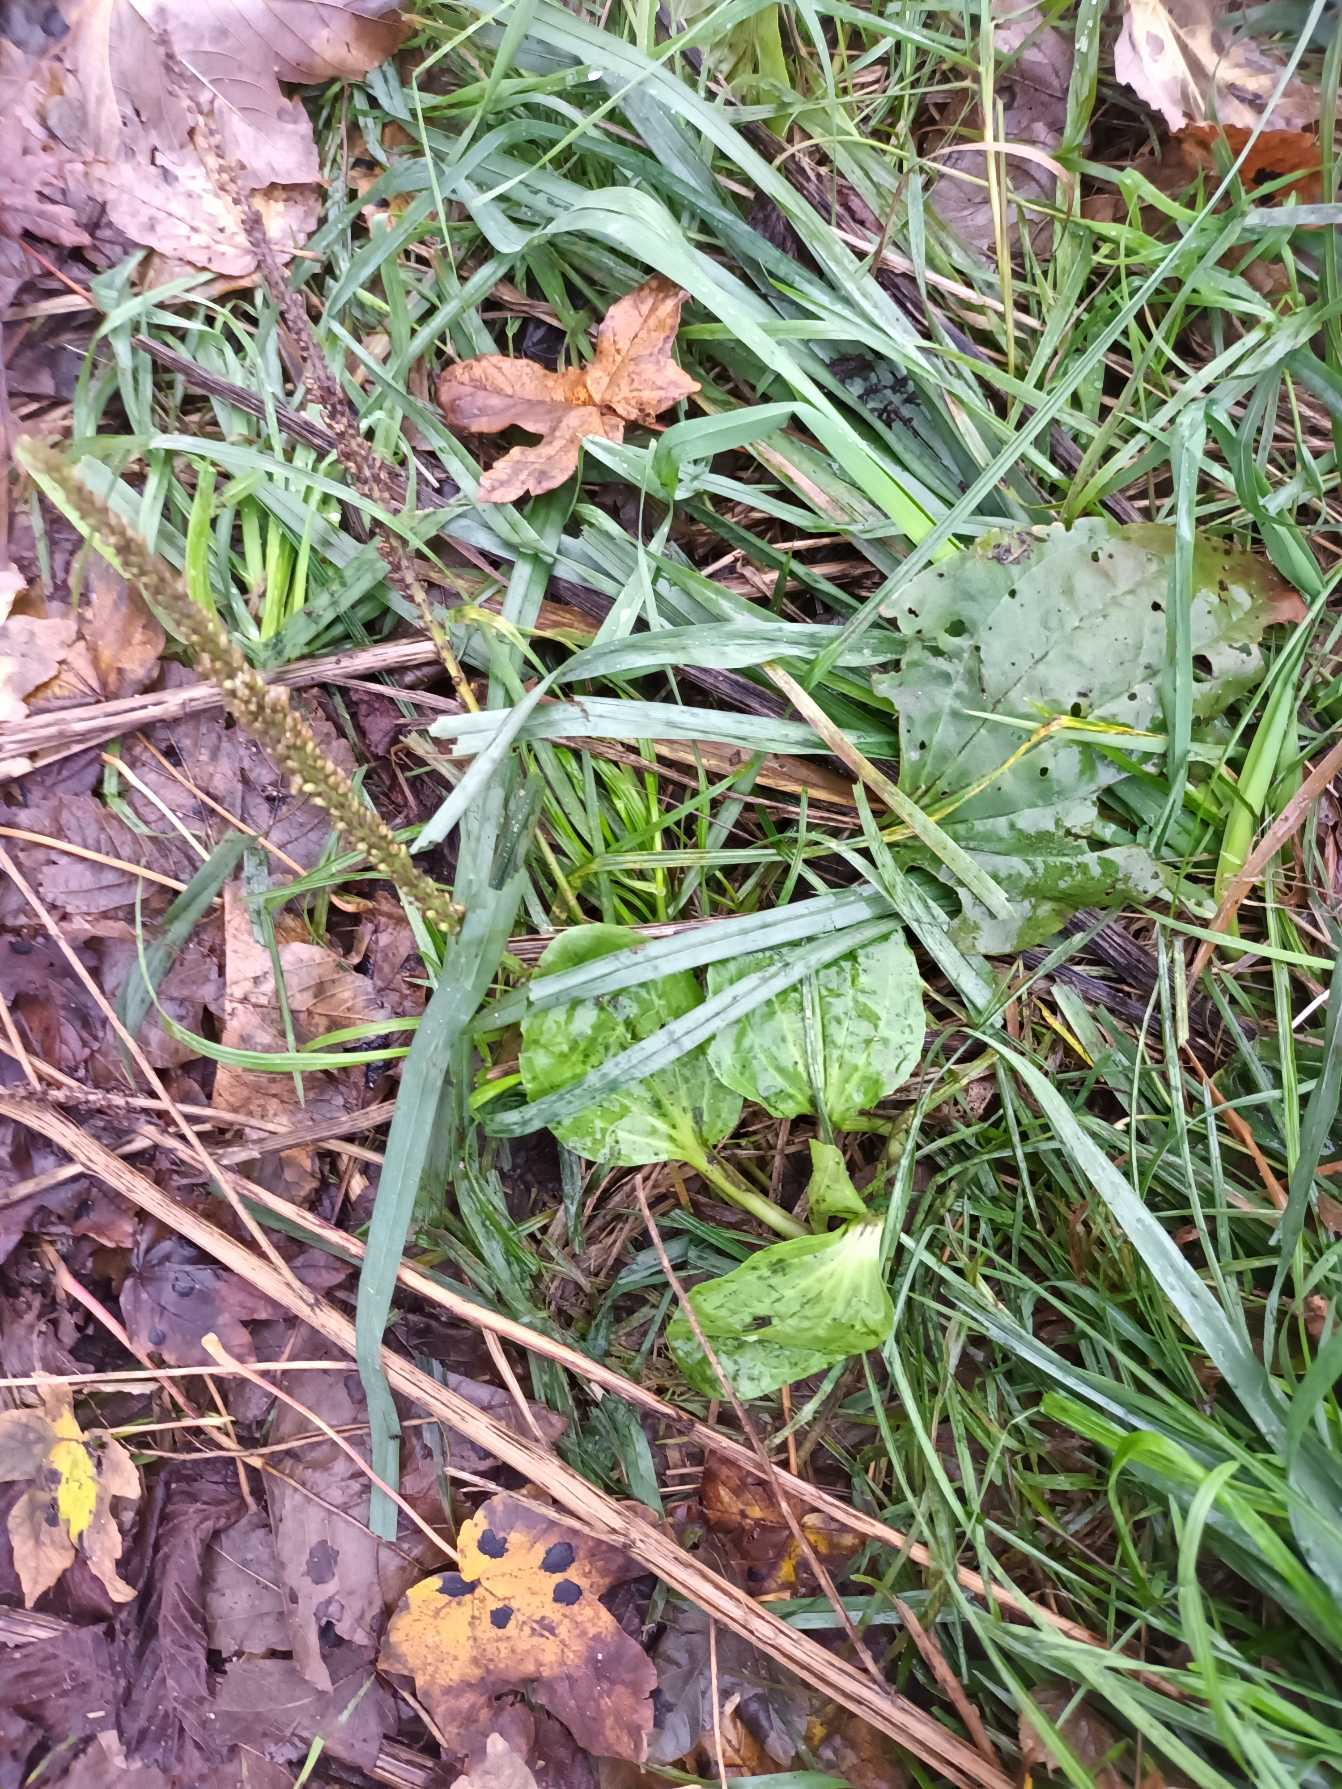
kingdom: Plantae
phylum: Tracheophyta
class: Magnoliopsida
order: Lamiales
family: Plantaginaceae
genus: Plantago
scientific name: Plantago major
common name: Glat vejbred
